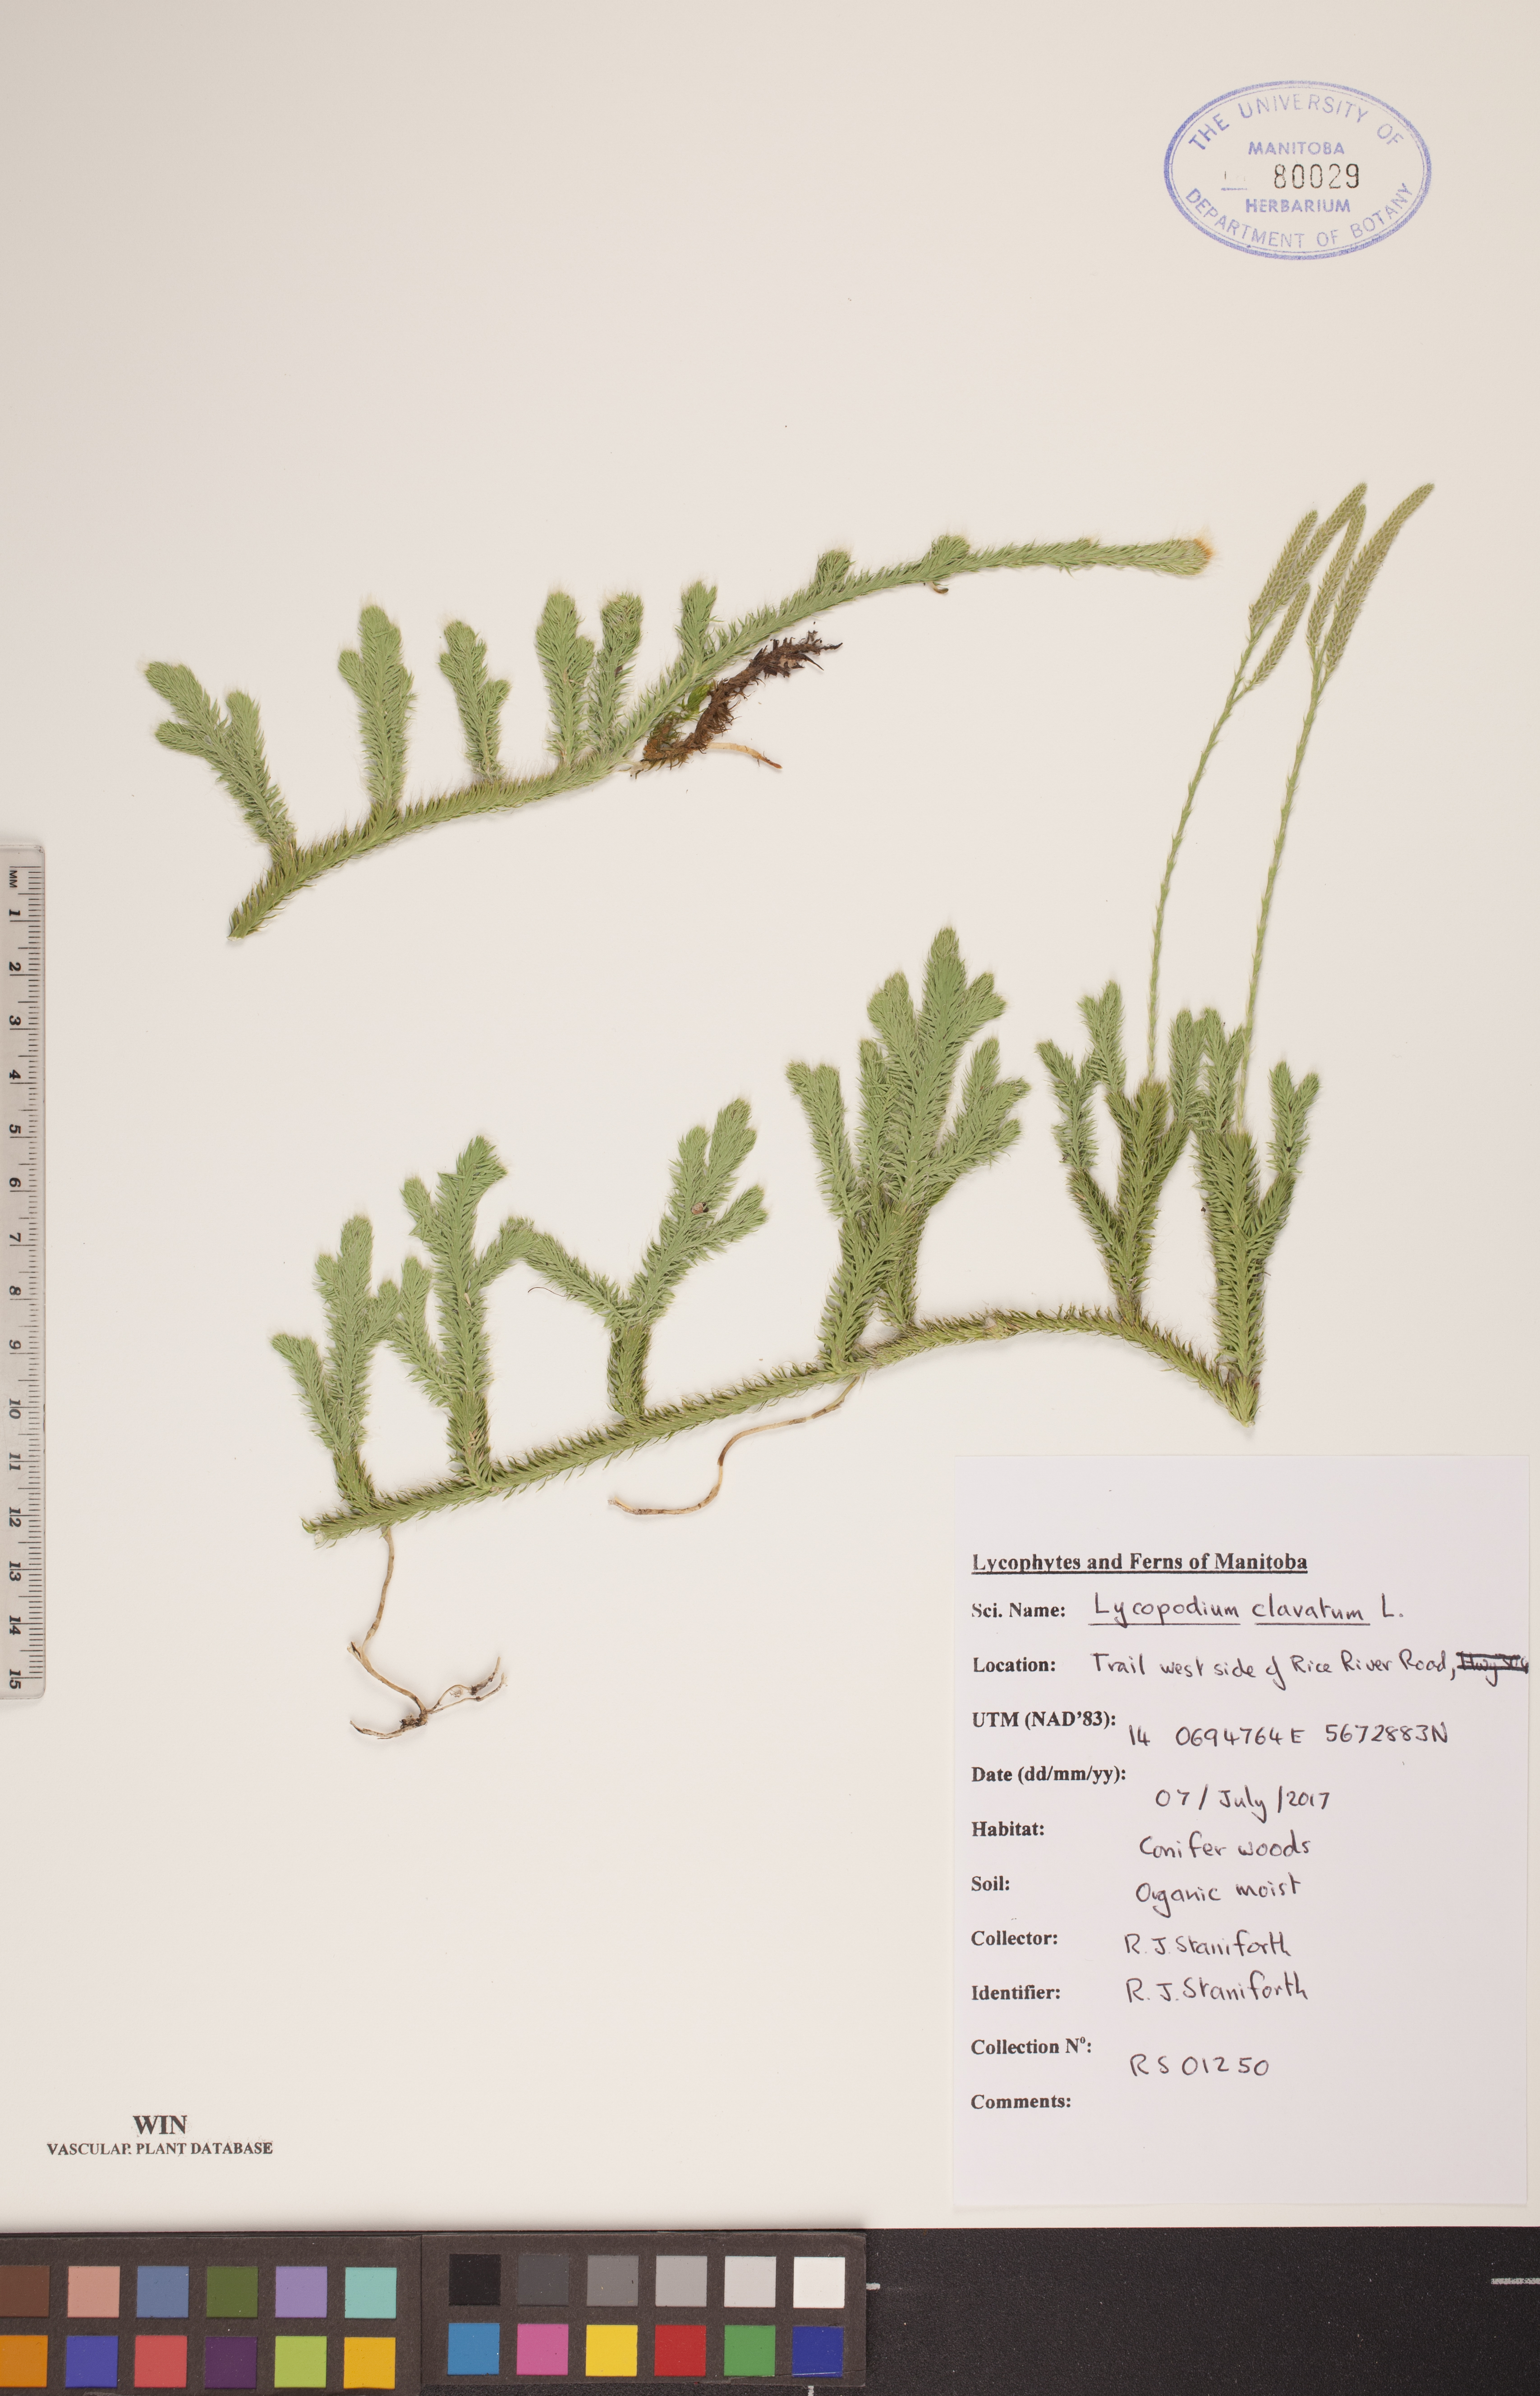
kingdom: Plantae
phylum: Tracheophyta
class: Lycopodiopsida
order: Lycopodiales
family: Lycopodiaceae
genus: Lycopodium
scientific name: Lycopodium clavatum
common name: Stag's-horn clubmoss
